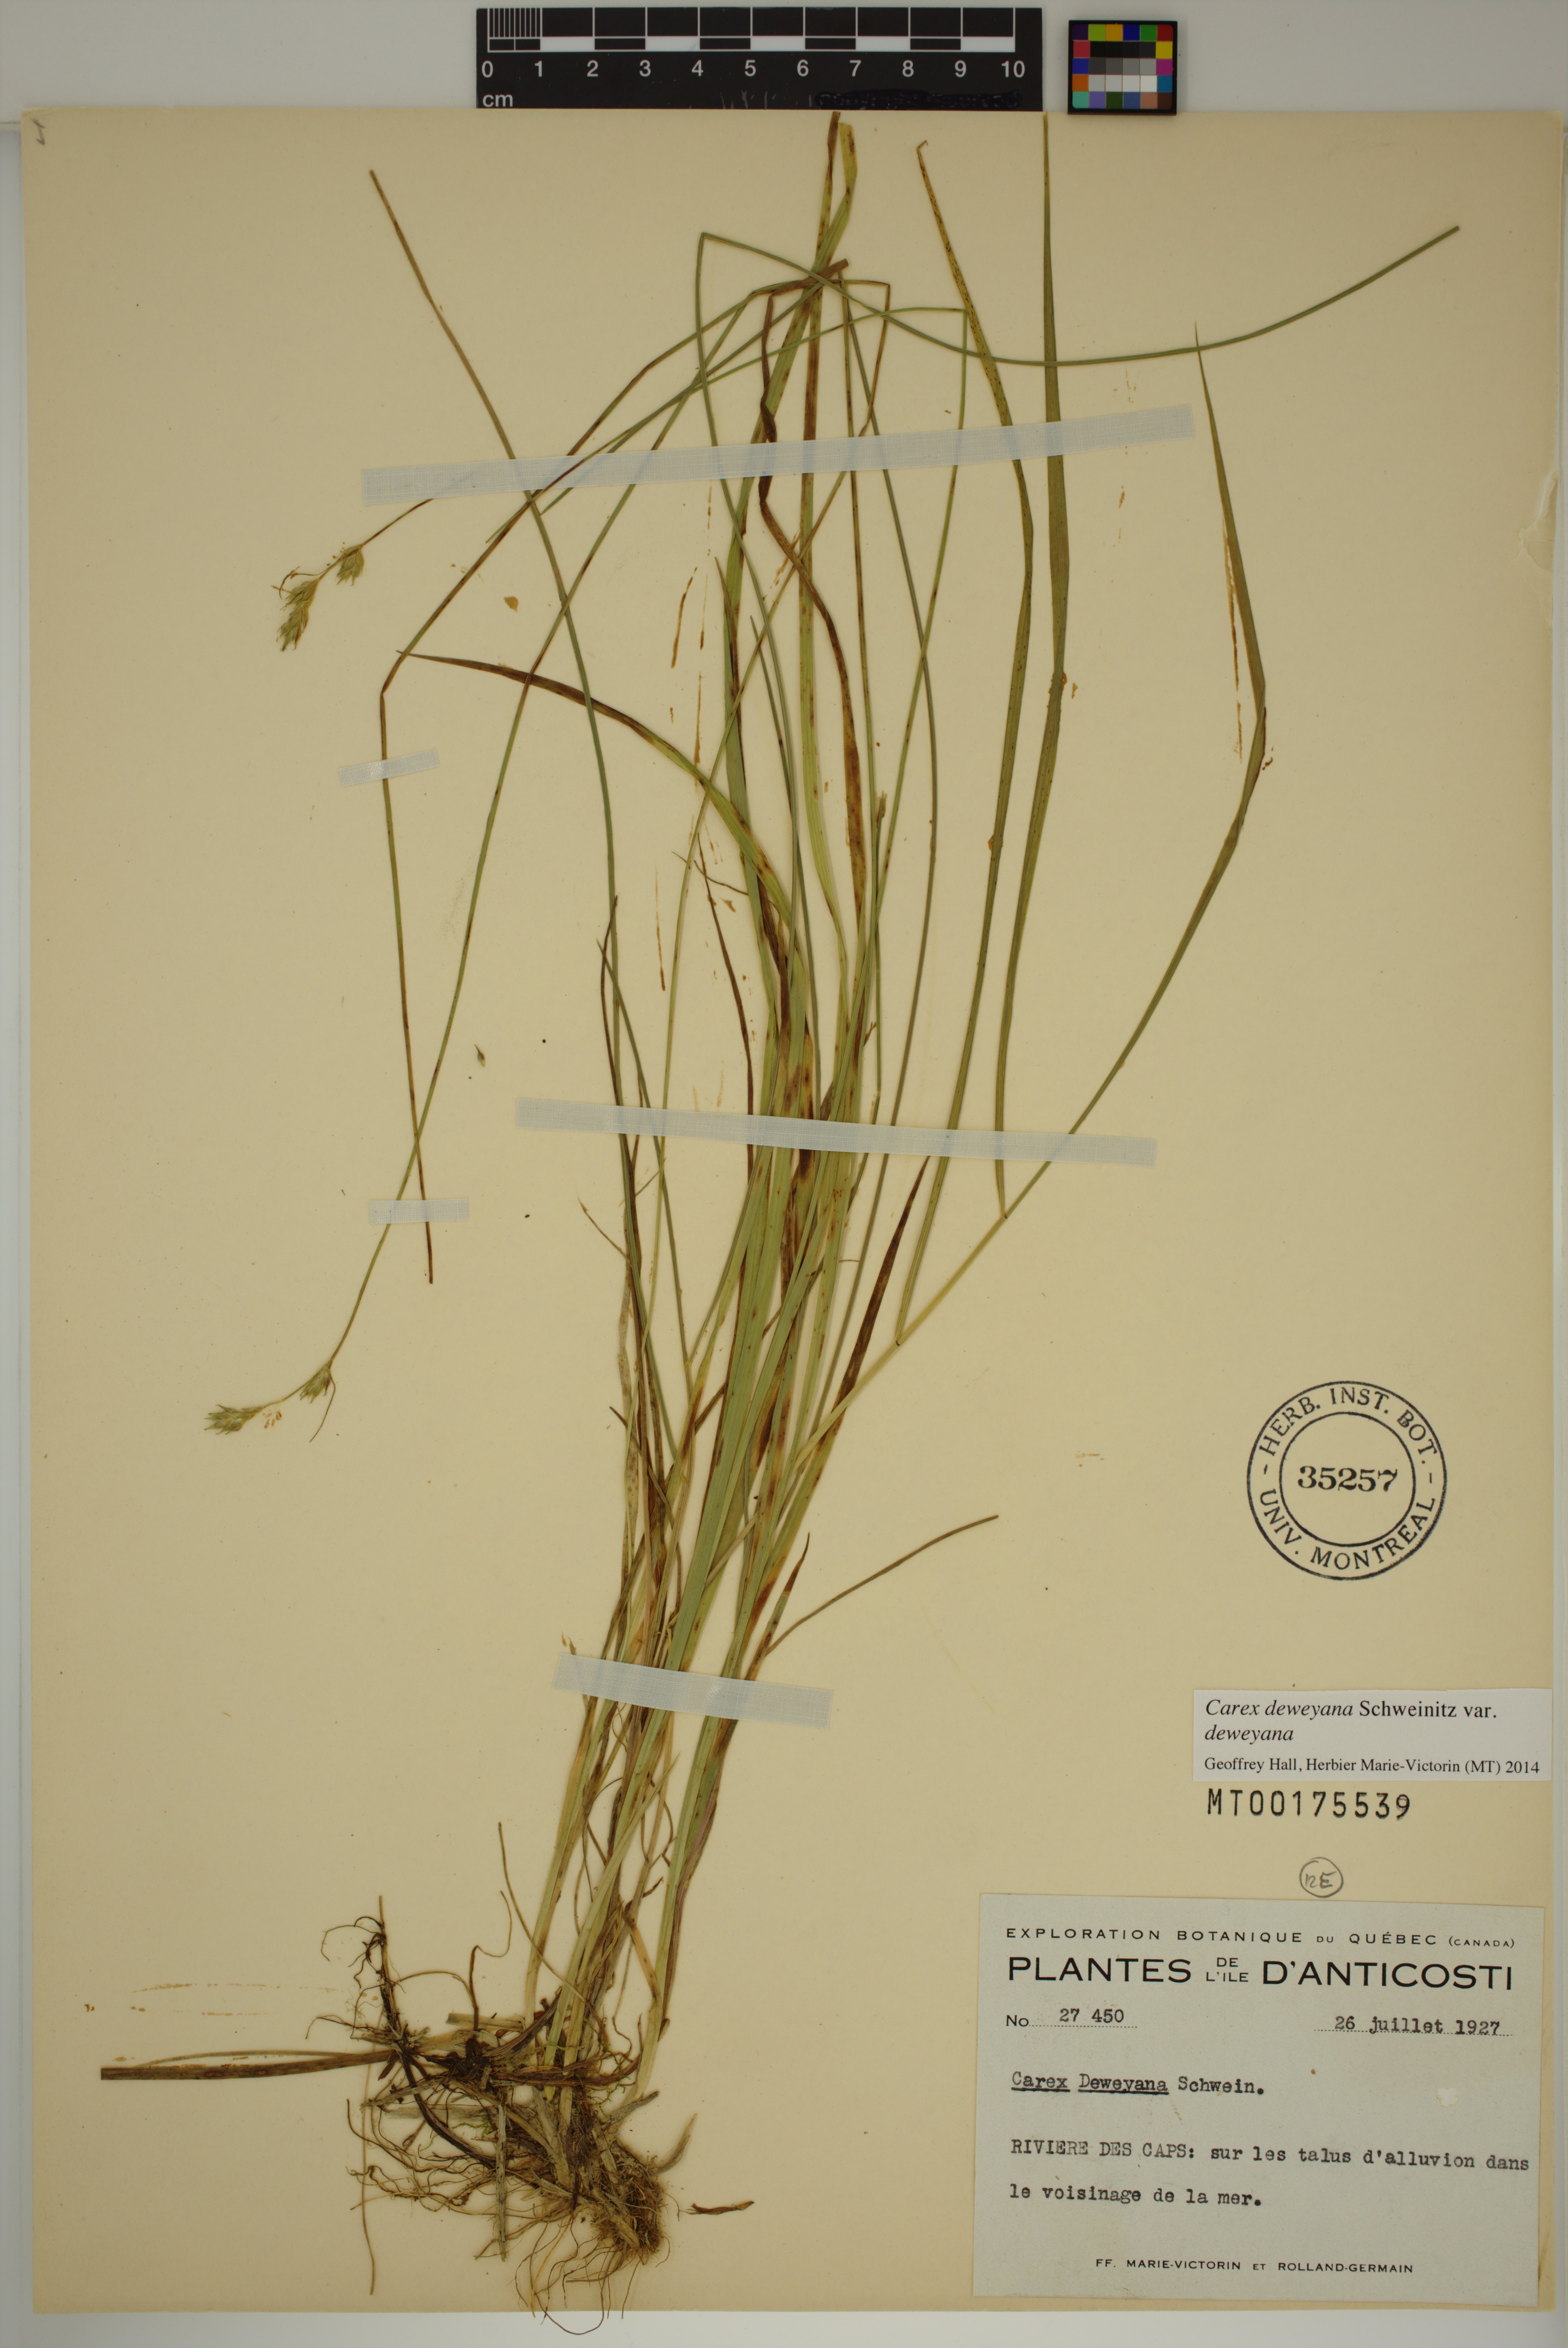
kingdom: Plantae
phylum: Tracheophyta
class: Liliopsida
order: Poales
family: Cyperaceae
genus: Carex
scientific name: Carex deweyana
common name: Dewey's sedge
